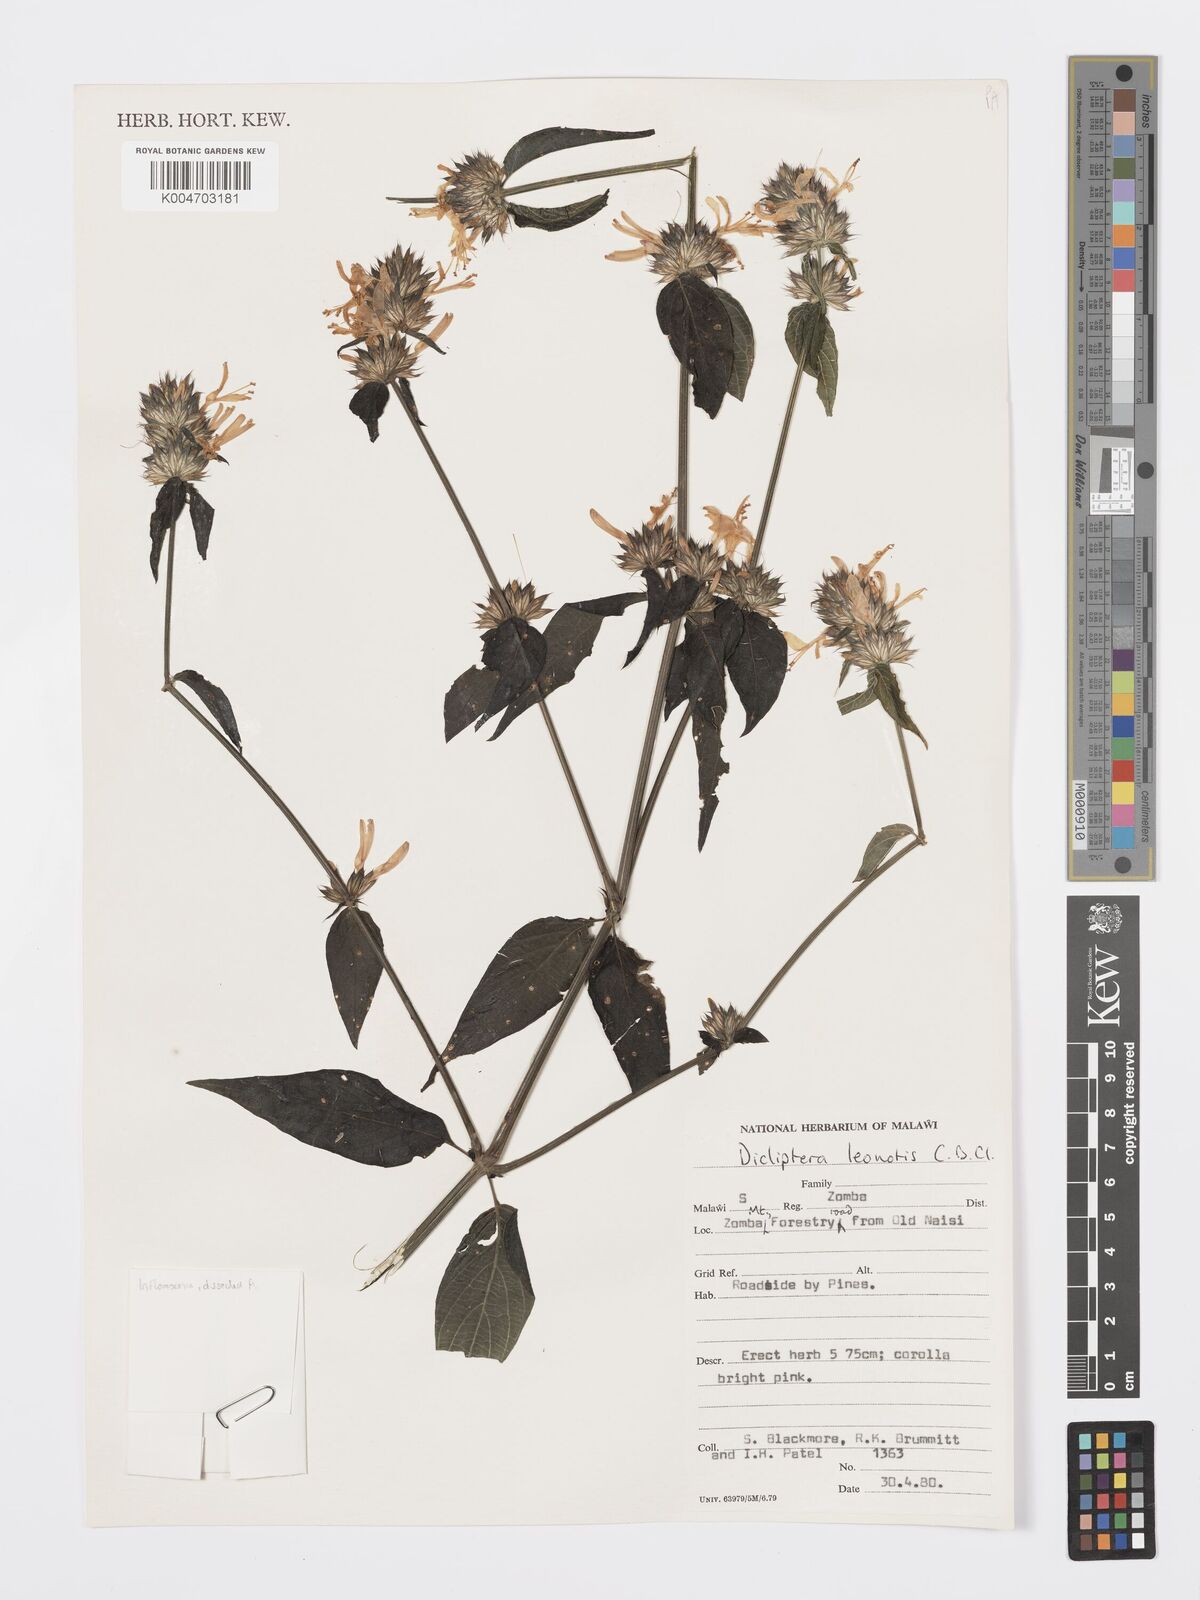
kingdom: Plantae
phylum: Tracheophyta
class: Magnoliopsida
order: Lamiales
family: Acanthaceae
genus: Dicliptera
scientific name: Dicliptera clinopodia
